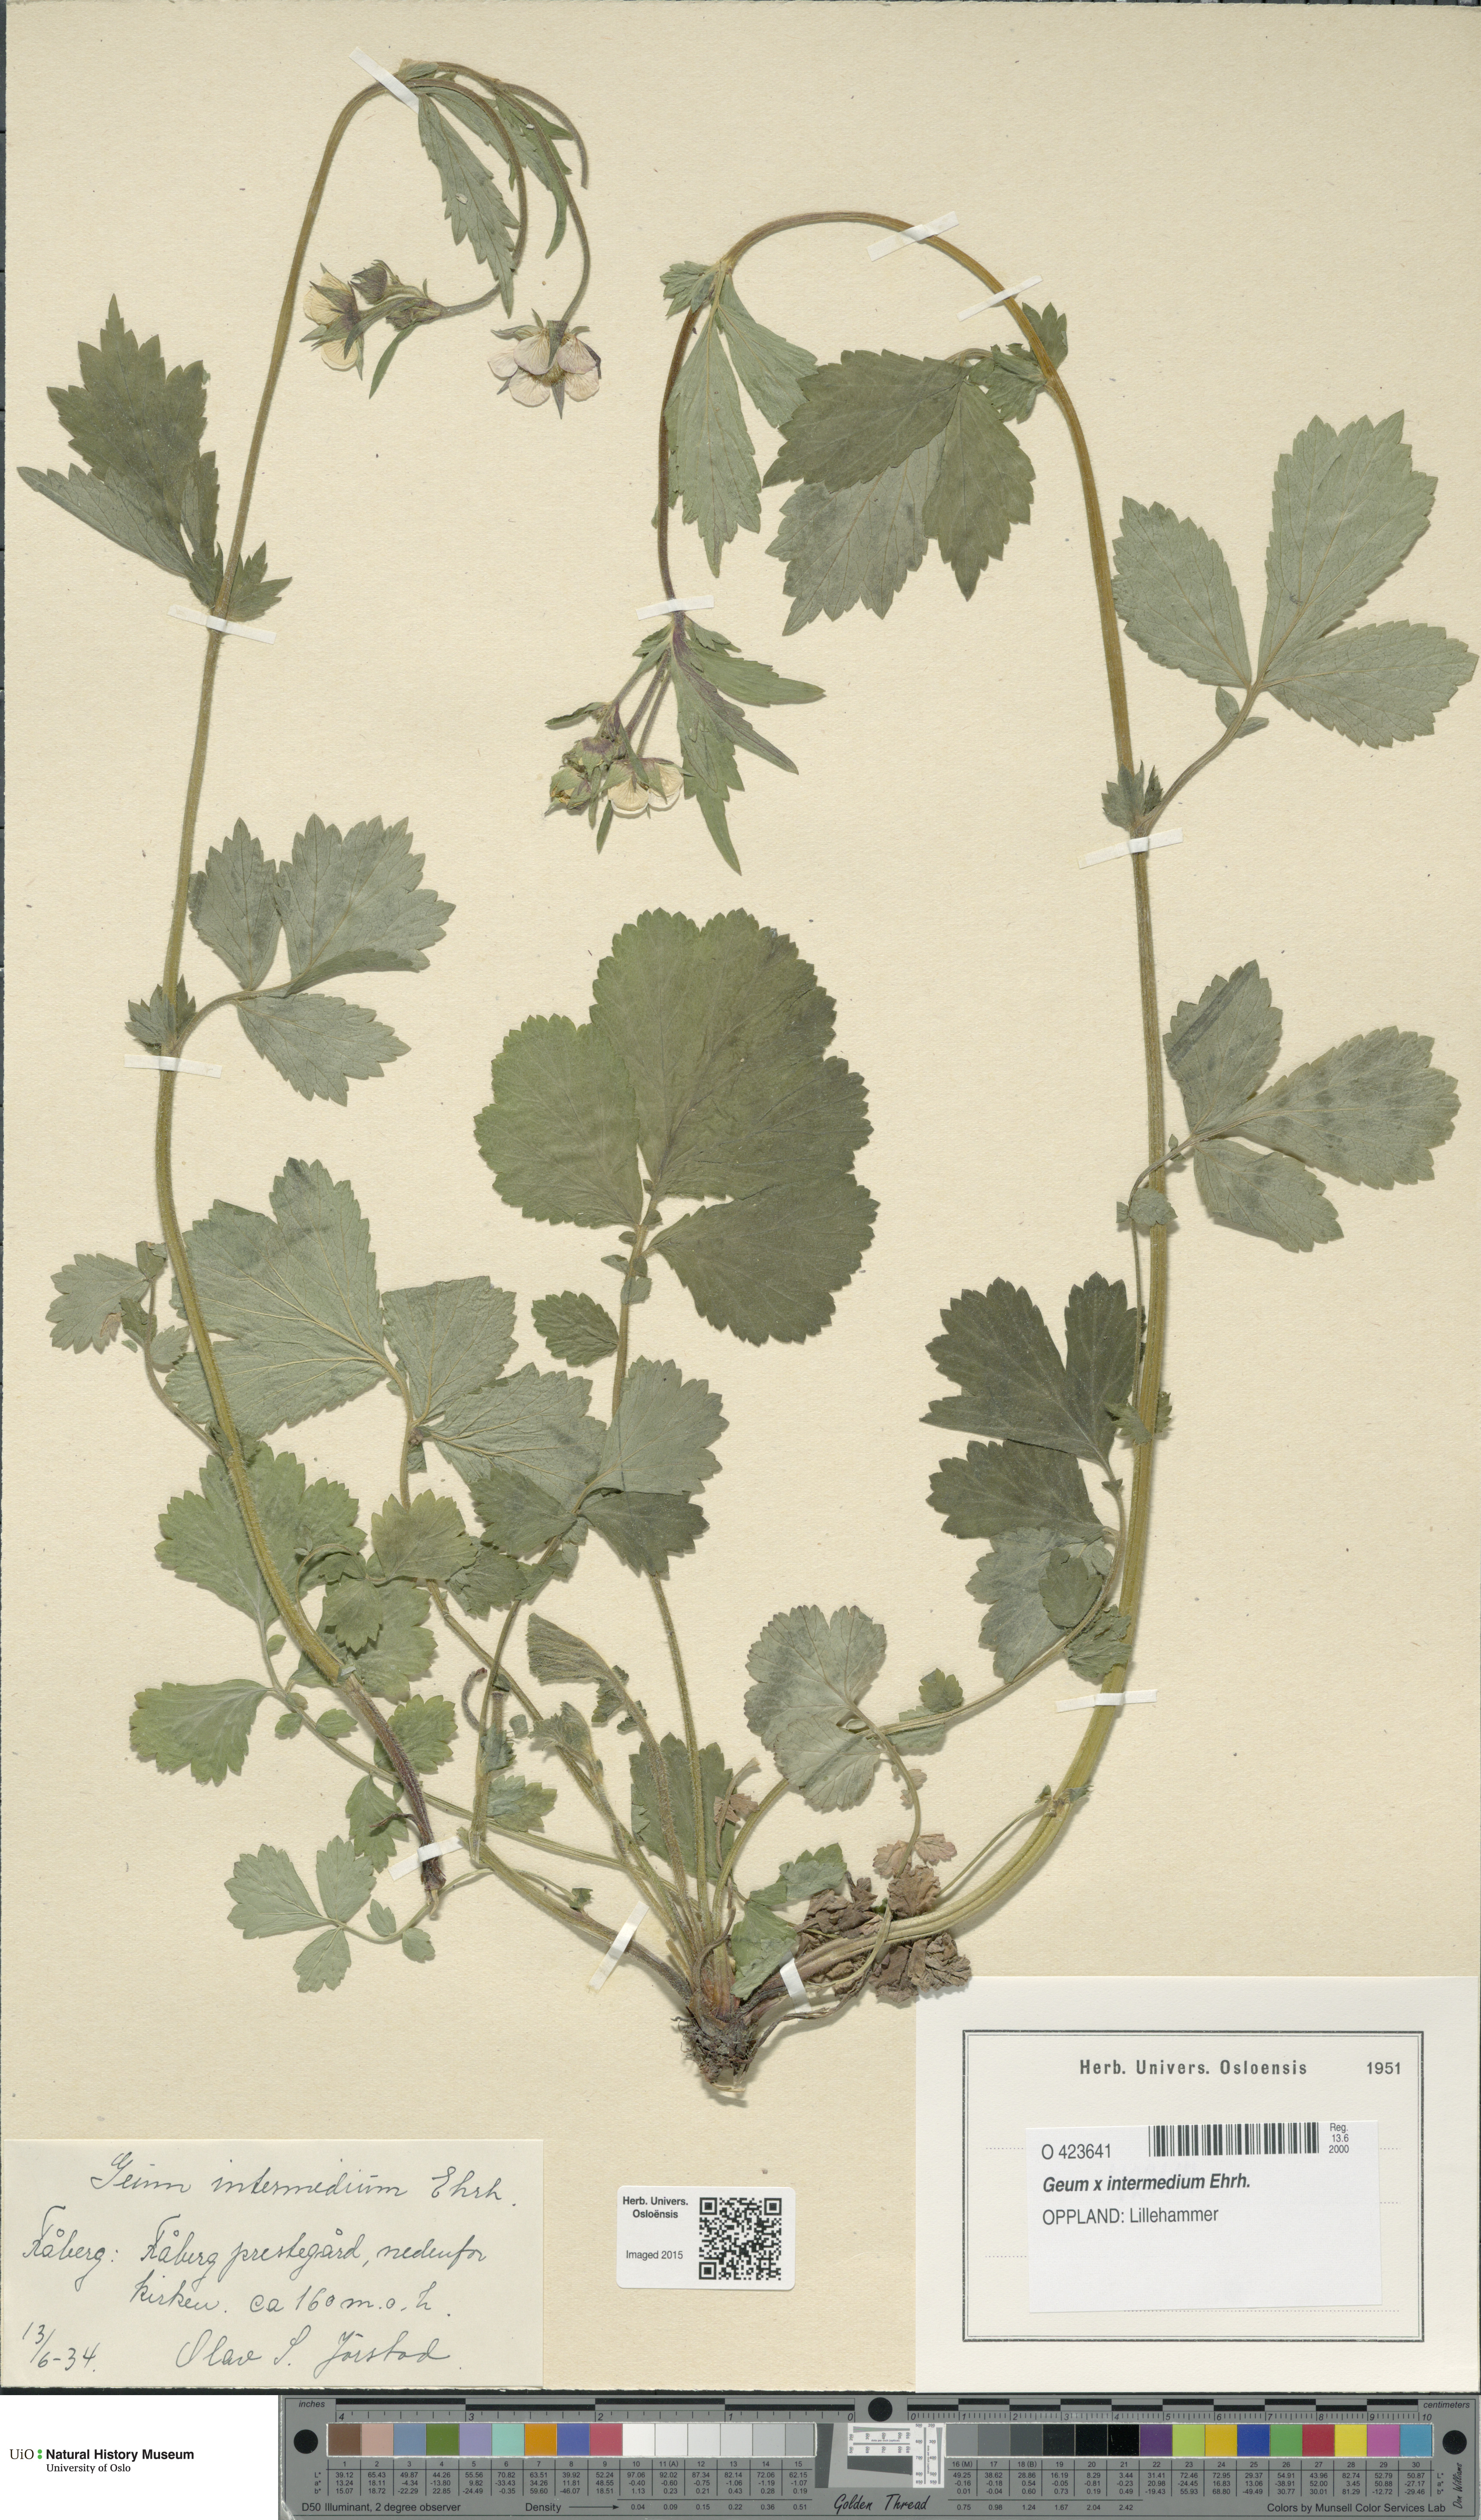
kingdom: Plantae
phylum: Tracheophyta
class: Magnoliopsida
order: Rosales
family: Rosaceae
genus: Geum
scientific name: Geum intermedium
